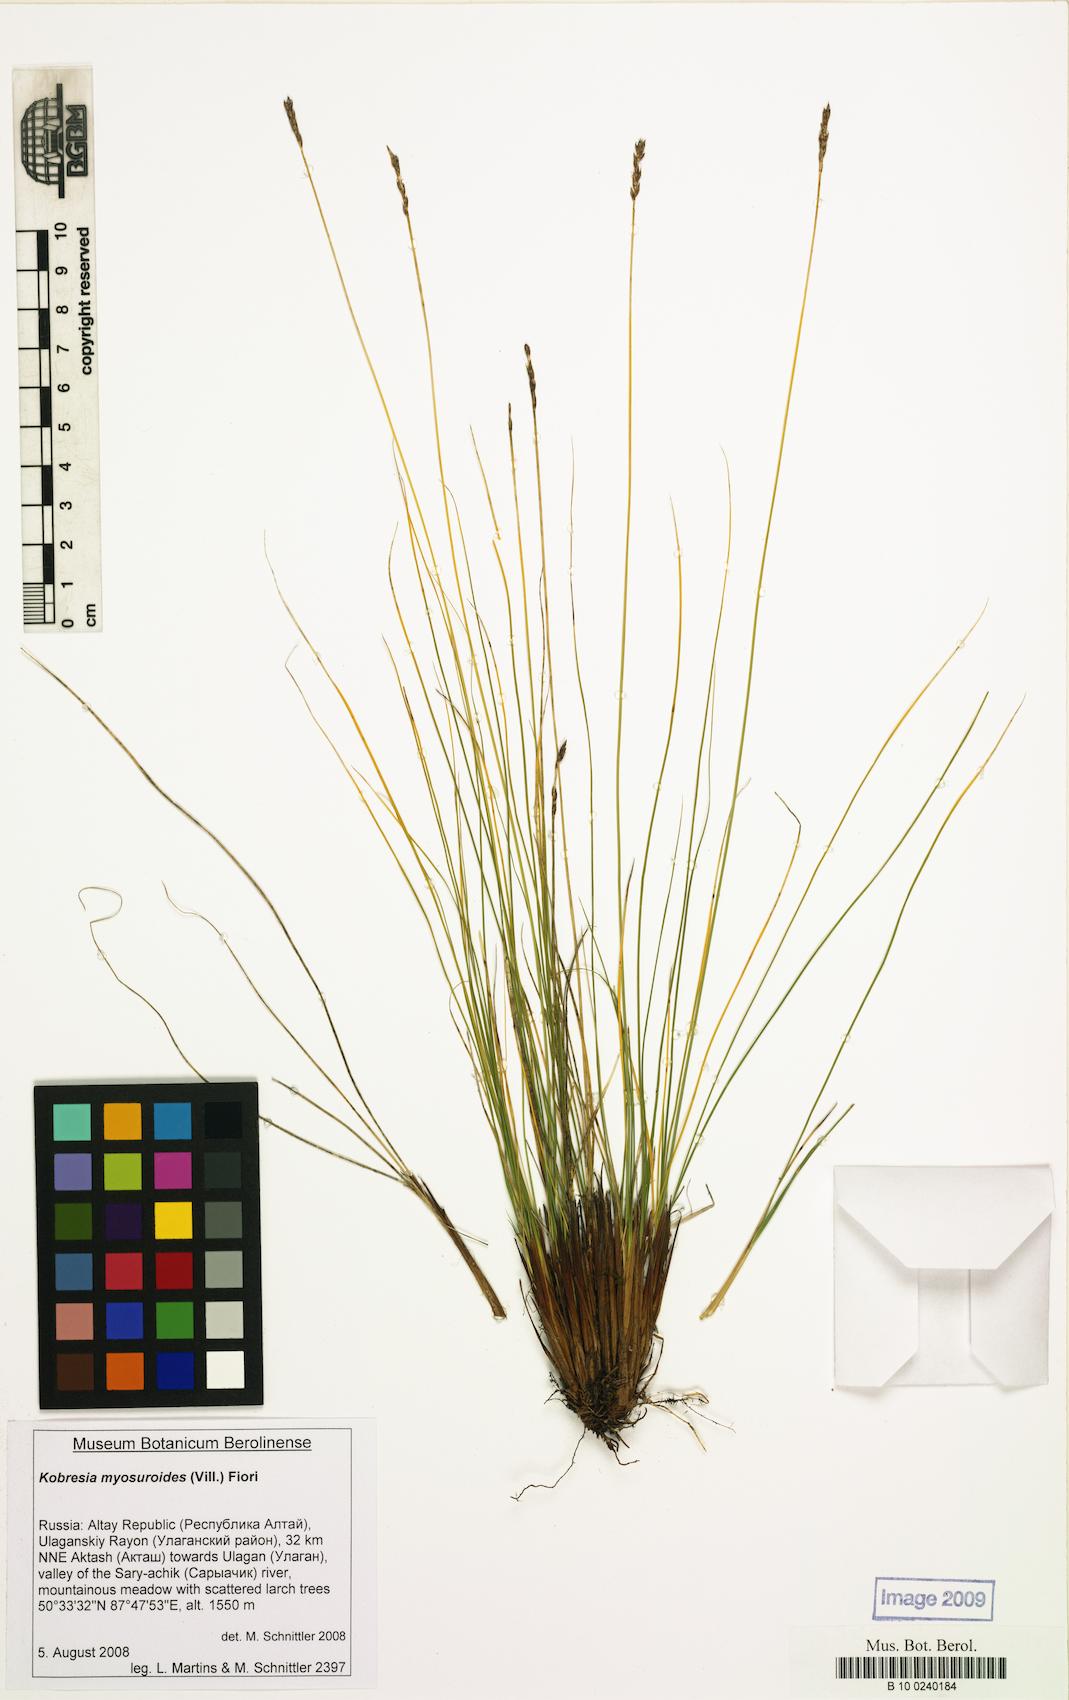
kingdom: Plantae
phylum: Tracheophyta
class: Liliopsida
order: Poales
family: Cyperaceae
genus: Carex
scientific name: Carex myosuroides
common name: Bellard's bog sedge
